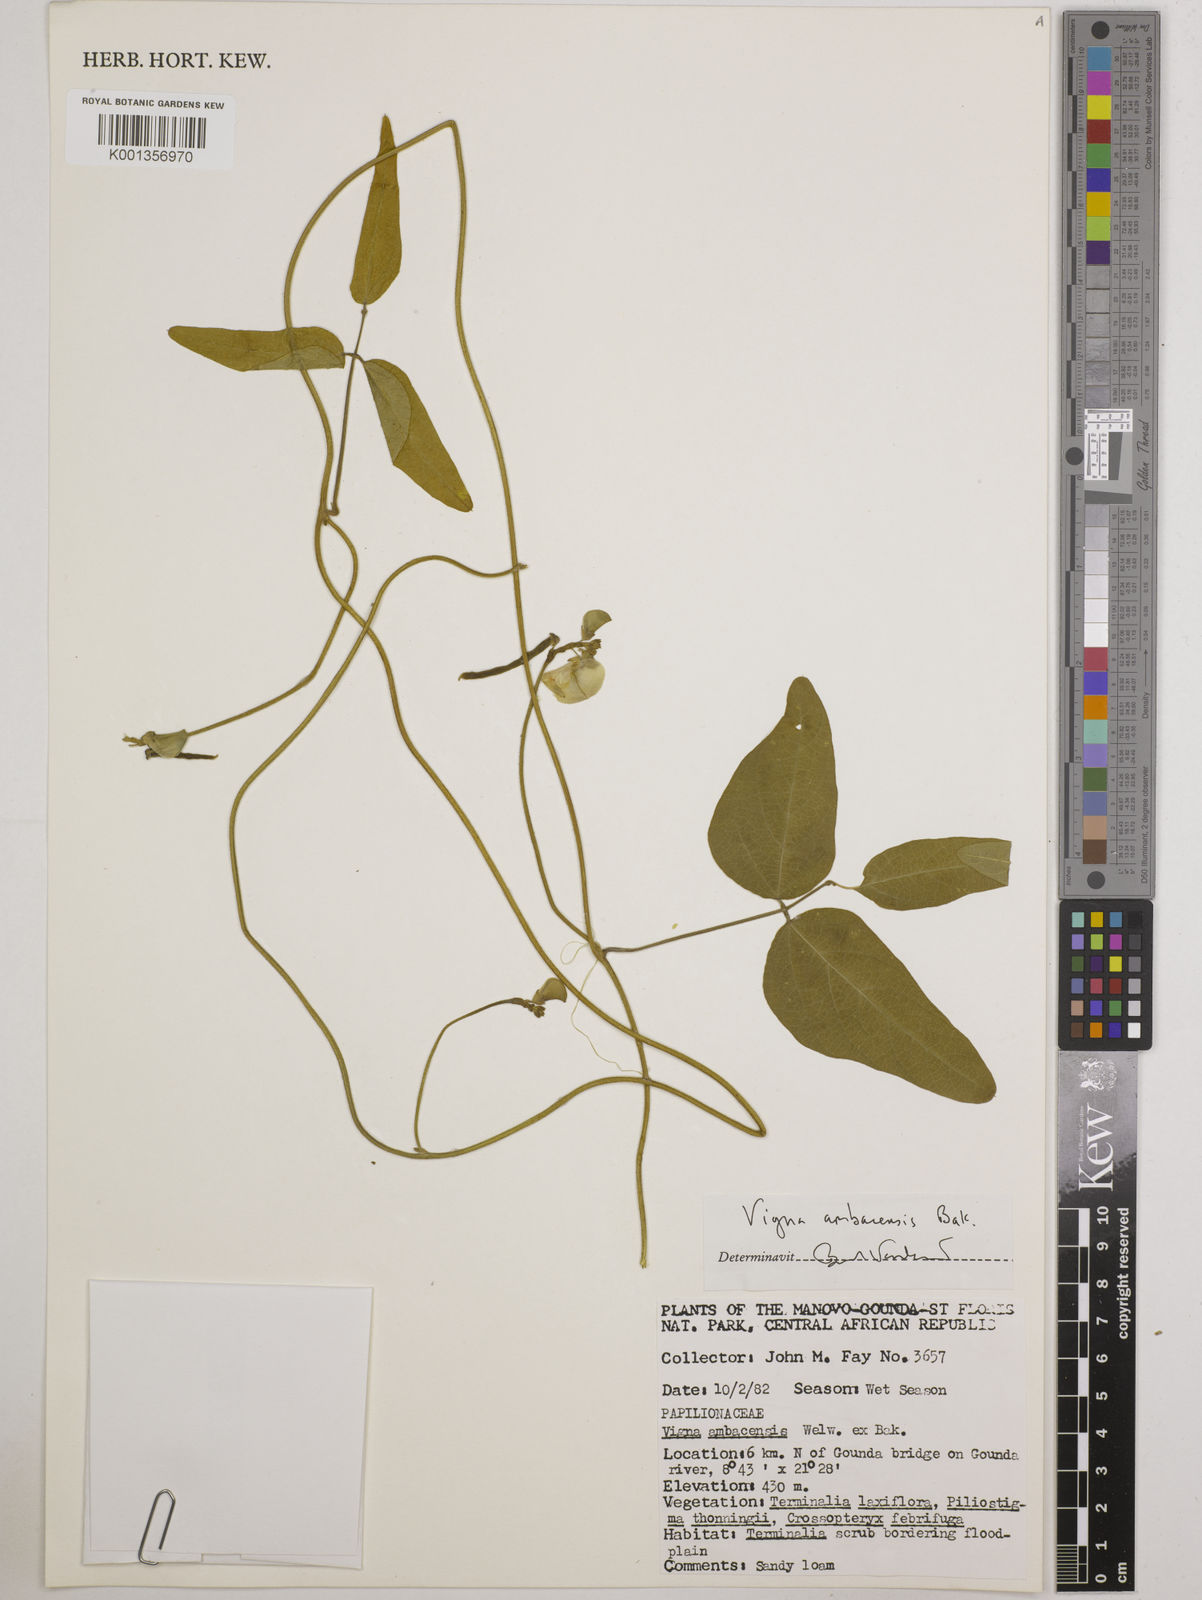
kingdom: Plantae
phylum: Tracheophyta
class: Magnoliopsida
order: Fabales
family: Fabaceae
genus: Vigna
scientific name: Vigna ambacensis
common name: Tsarkiyan zomo
